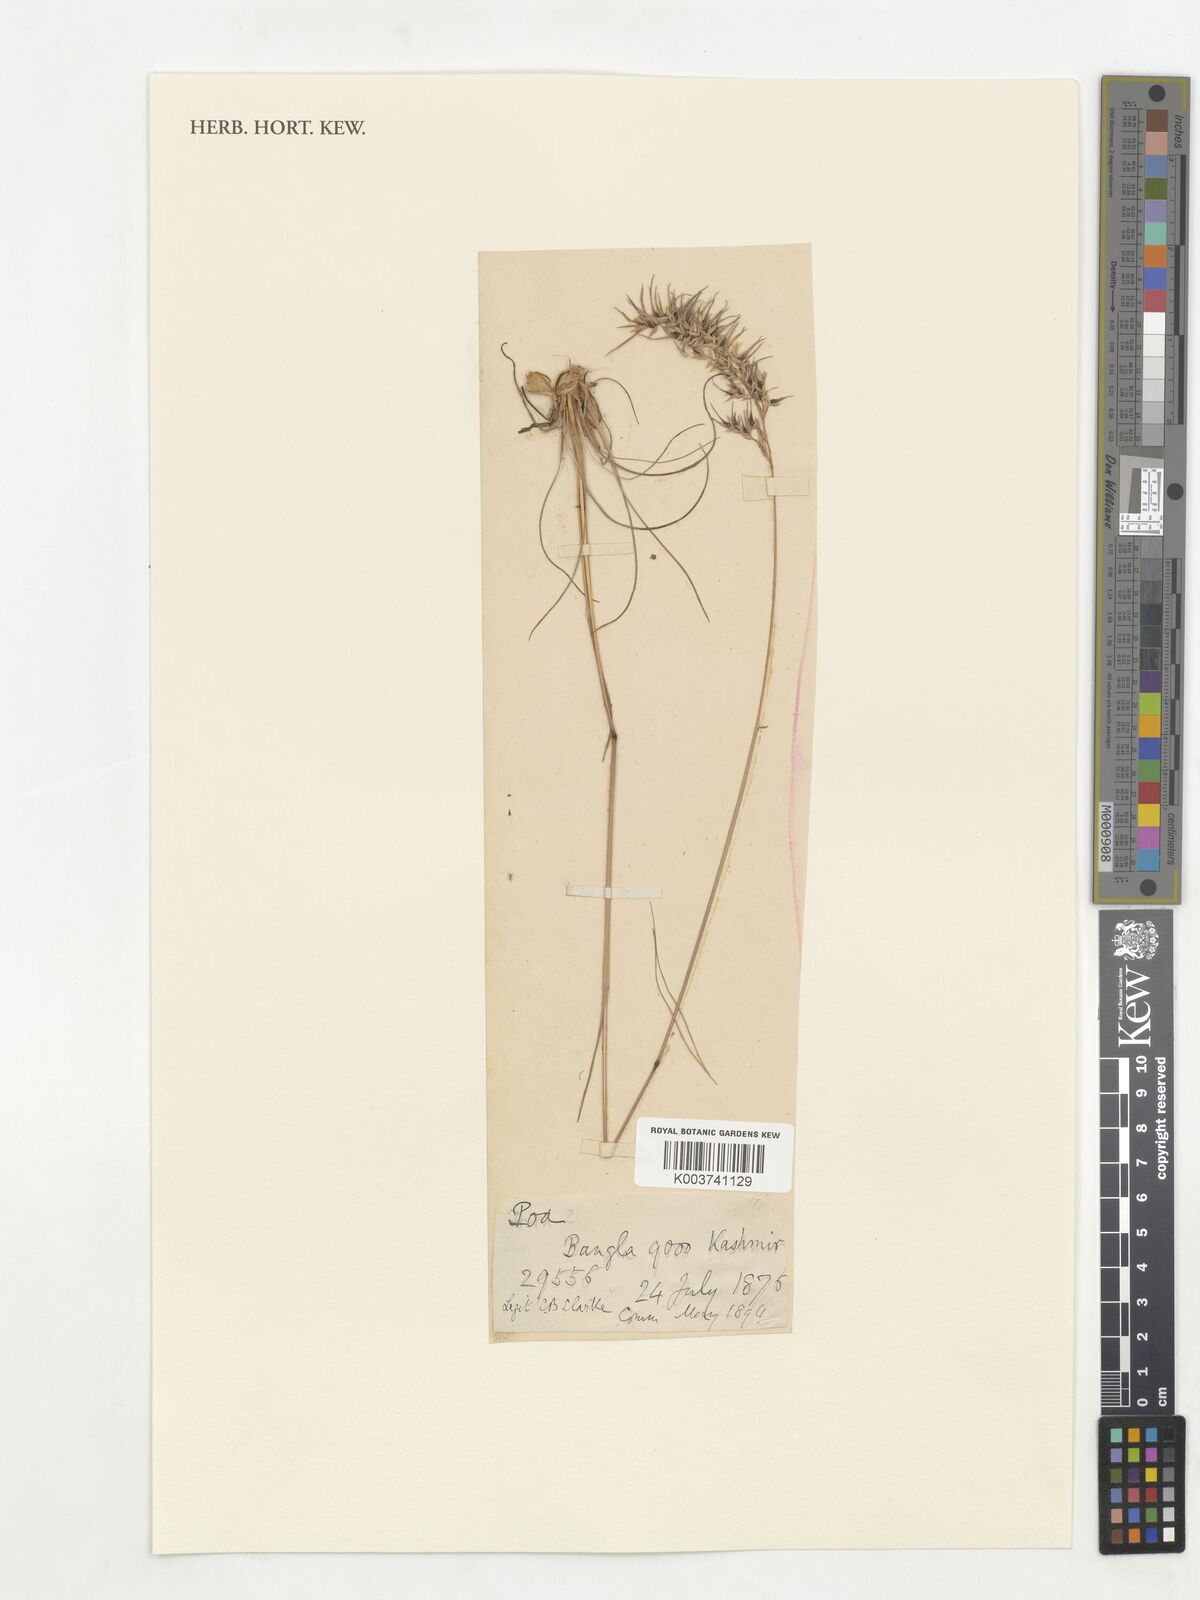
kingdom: Plantae
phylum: Tracheophyta
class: Liliopsida
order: Poales
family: Poaceae
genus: Poa
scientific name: Poa sinaica
